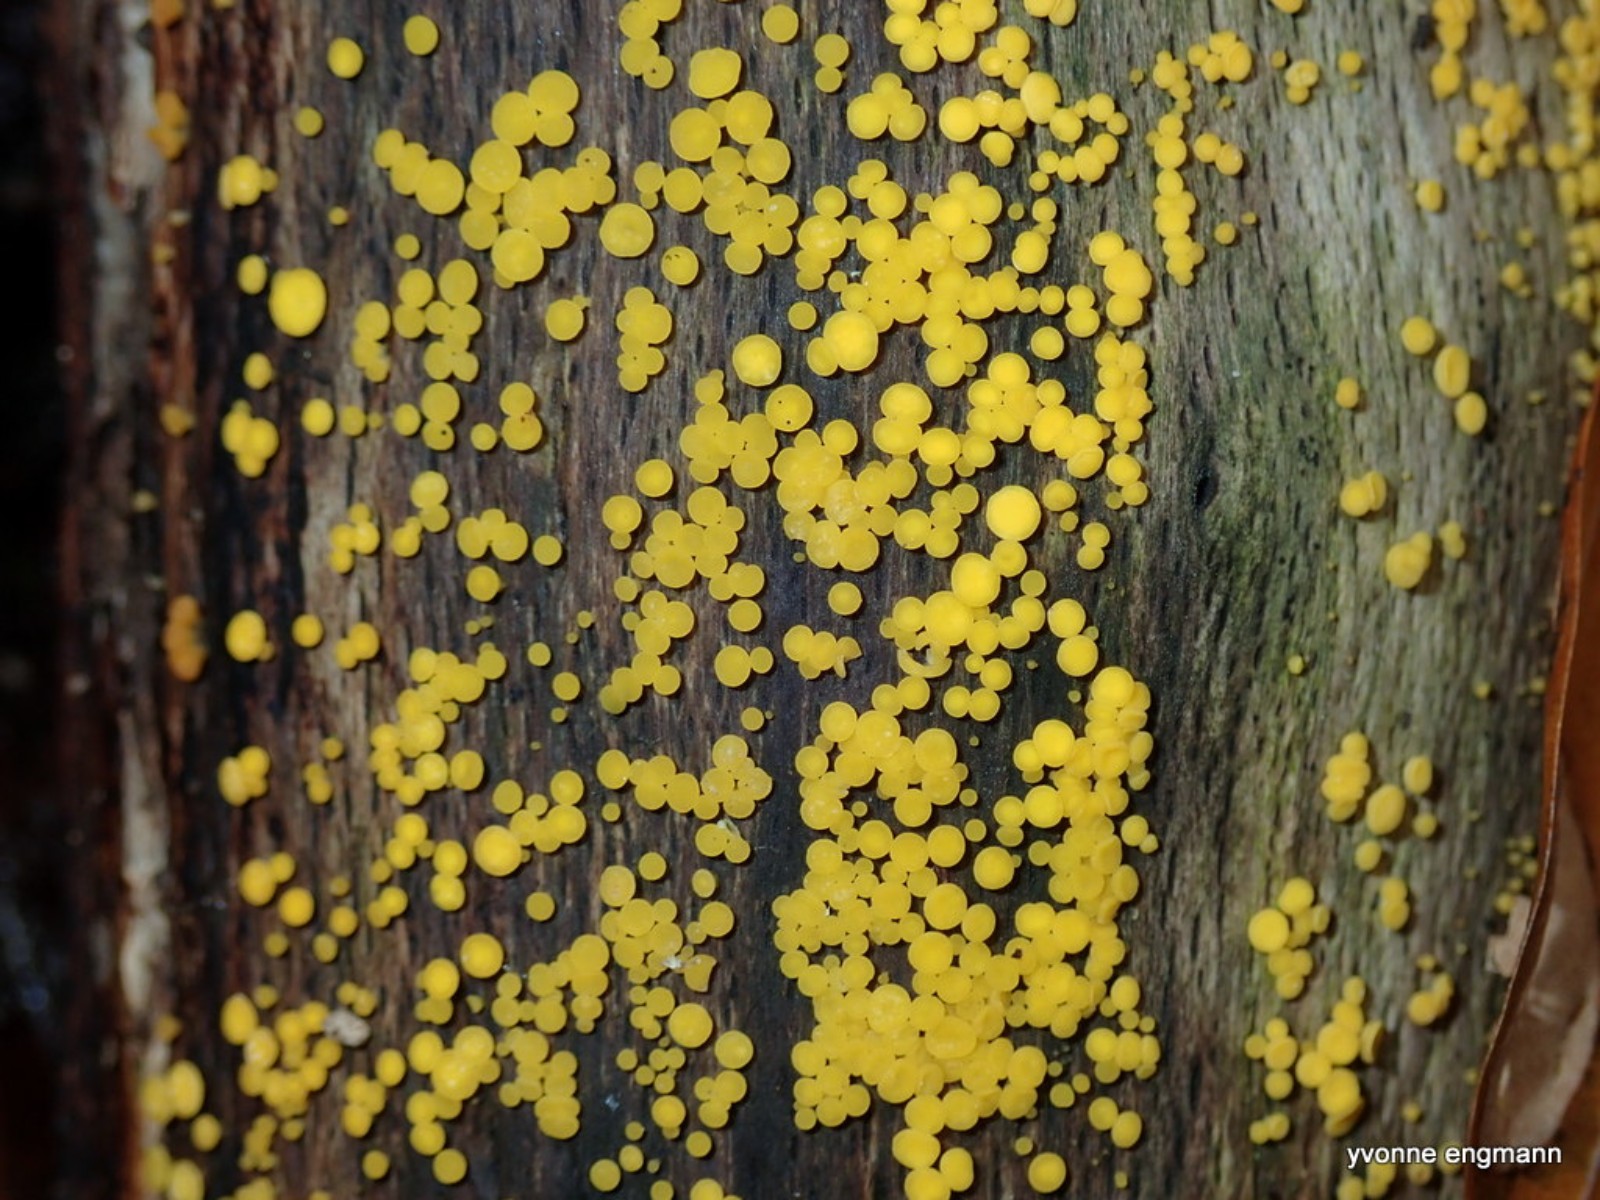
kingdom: Fungi
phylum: Ascomycota
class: Leotiomycetes
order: Helotiales
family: Pezizellaceae
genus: Calycina
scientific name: Calycina citrina
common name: almindelig gulskive
